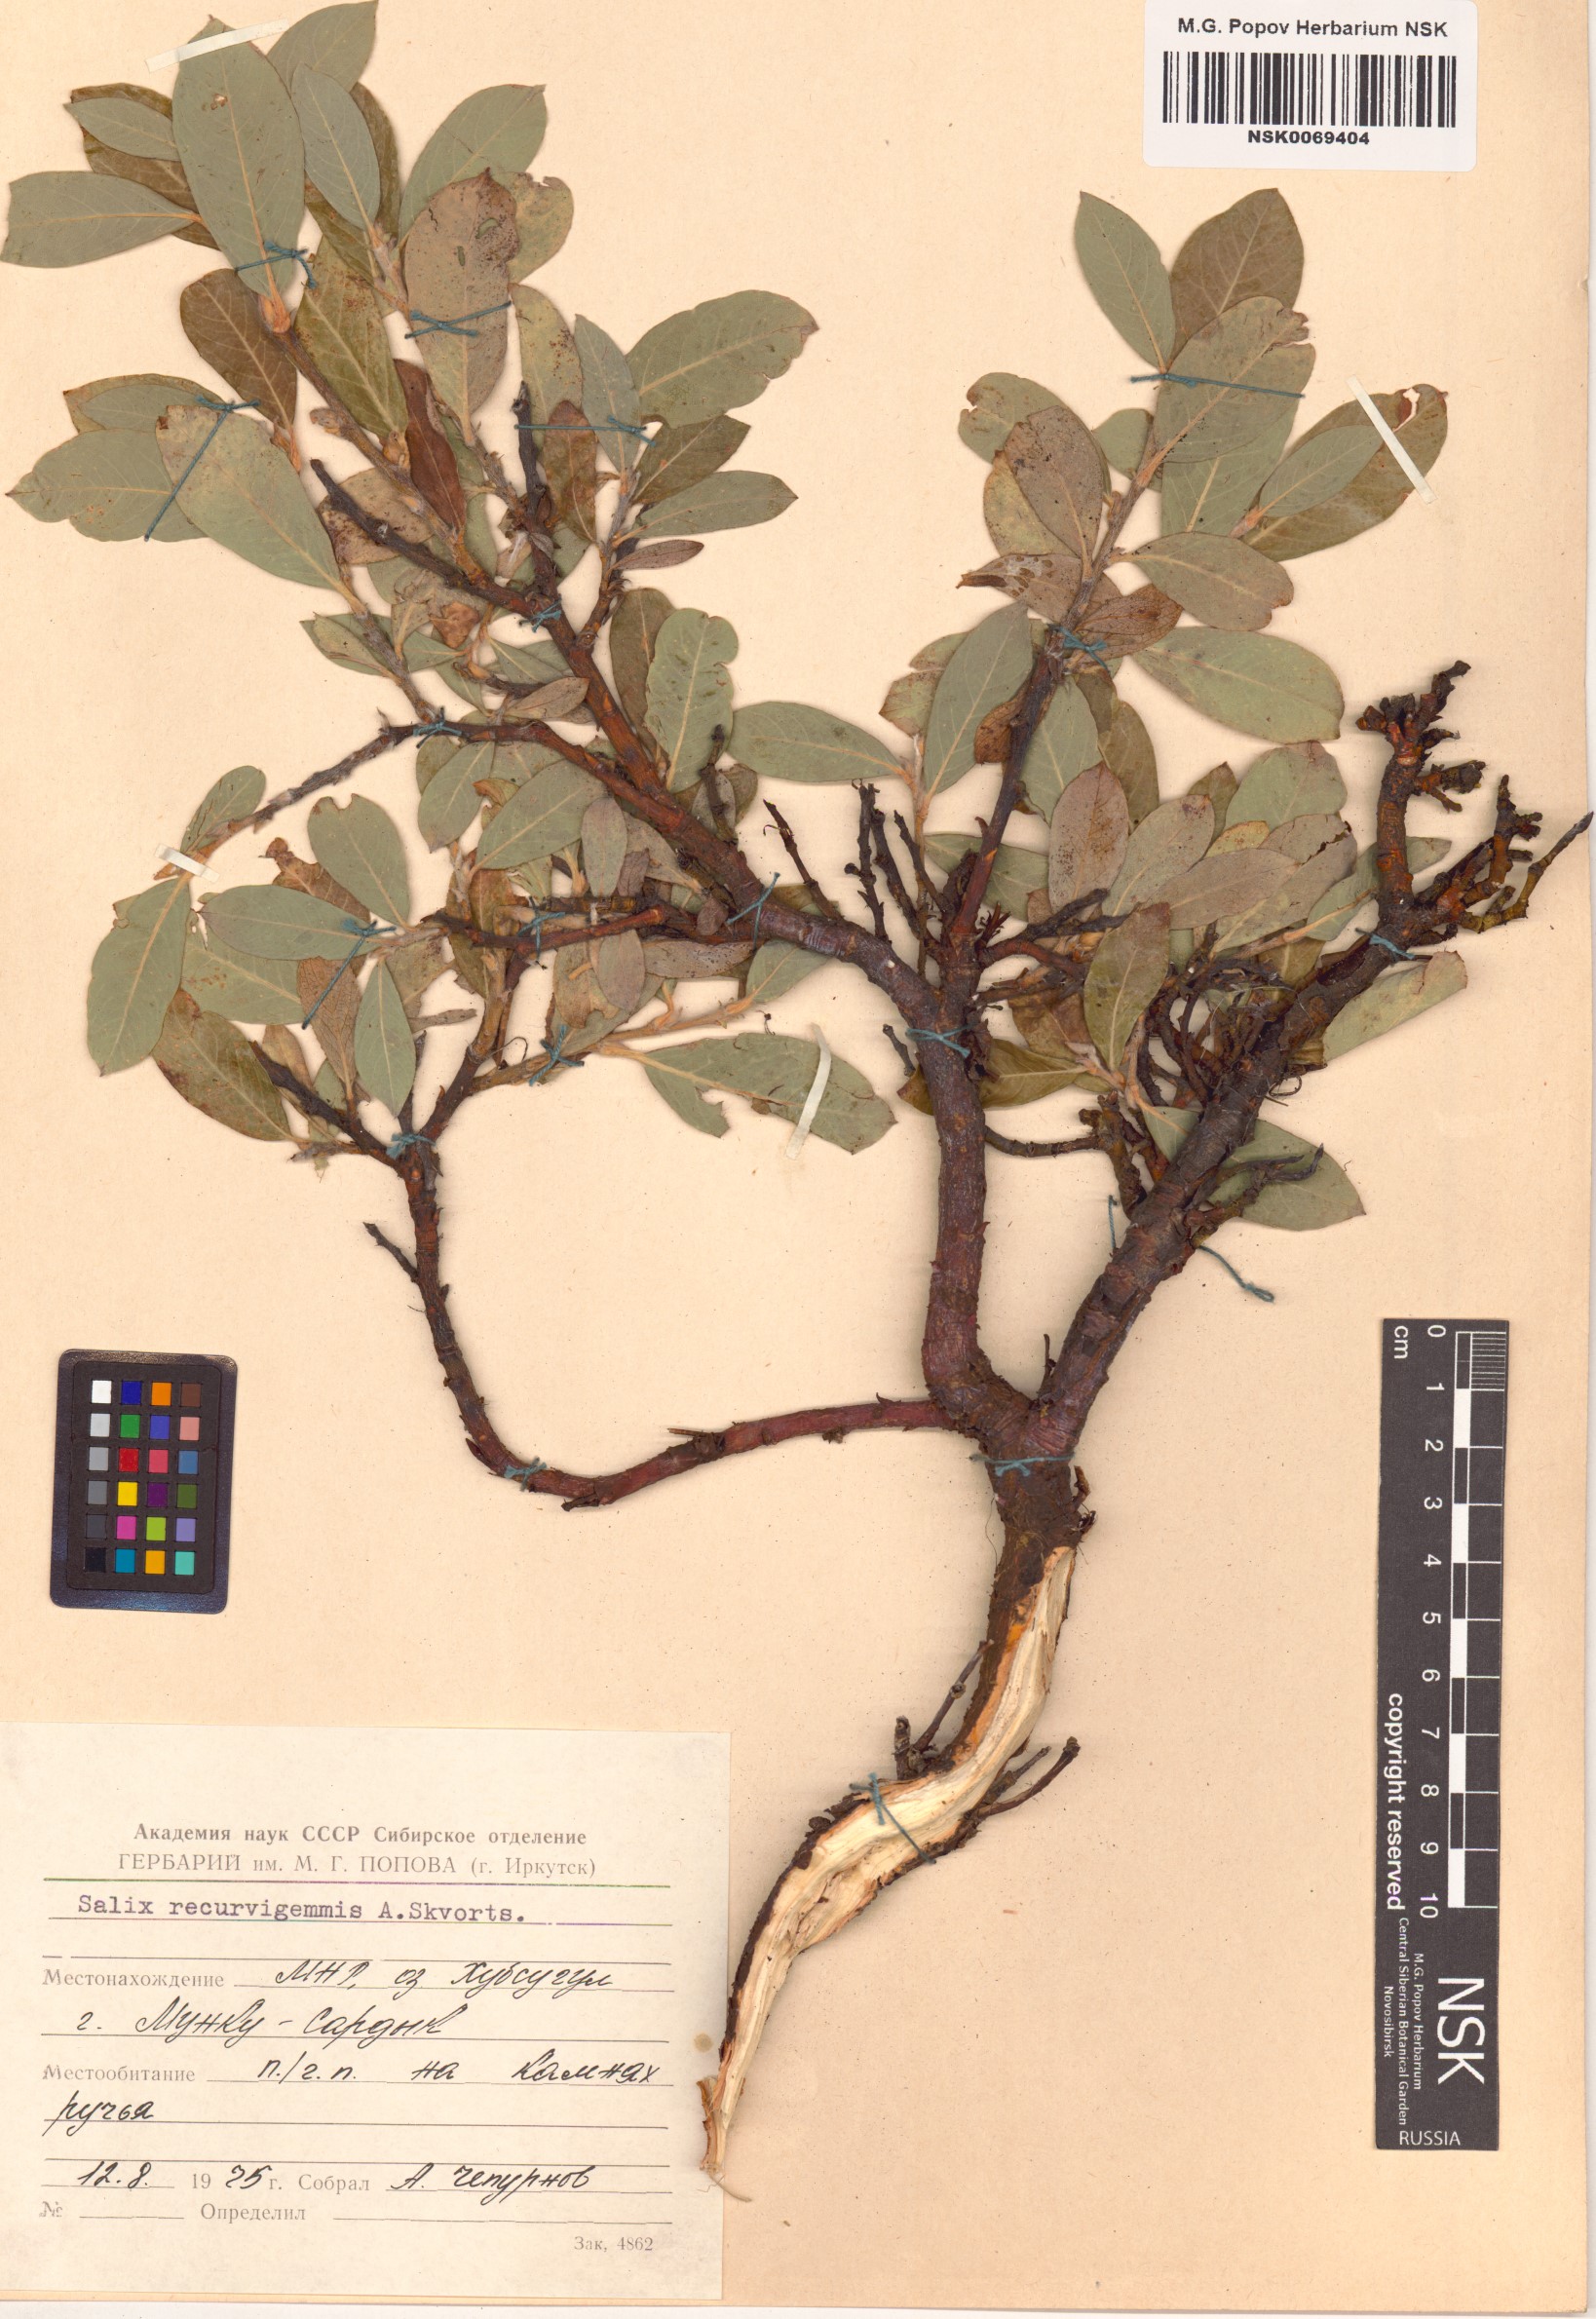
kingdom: Plantae
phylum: Tracheophyta
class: Magnoliopsida
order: Malpighiales
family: Salicaceae
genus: Salix
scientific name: Salix recurvigemmata
